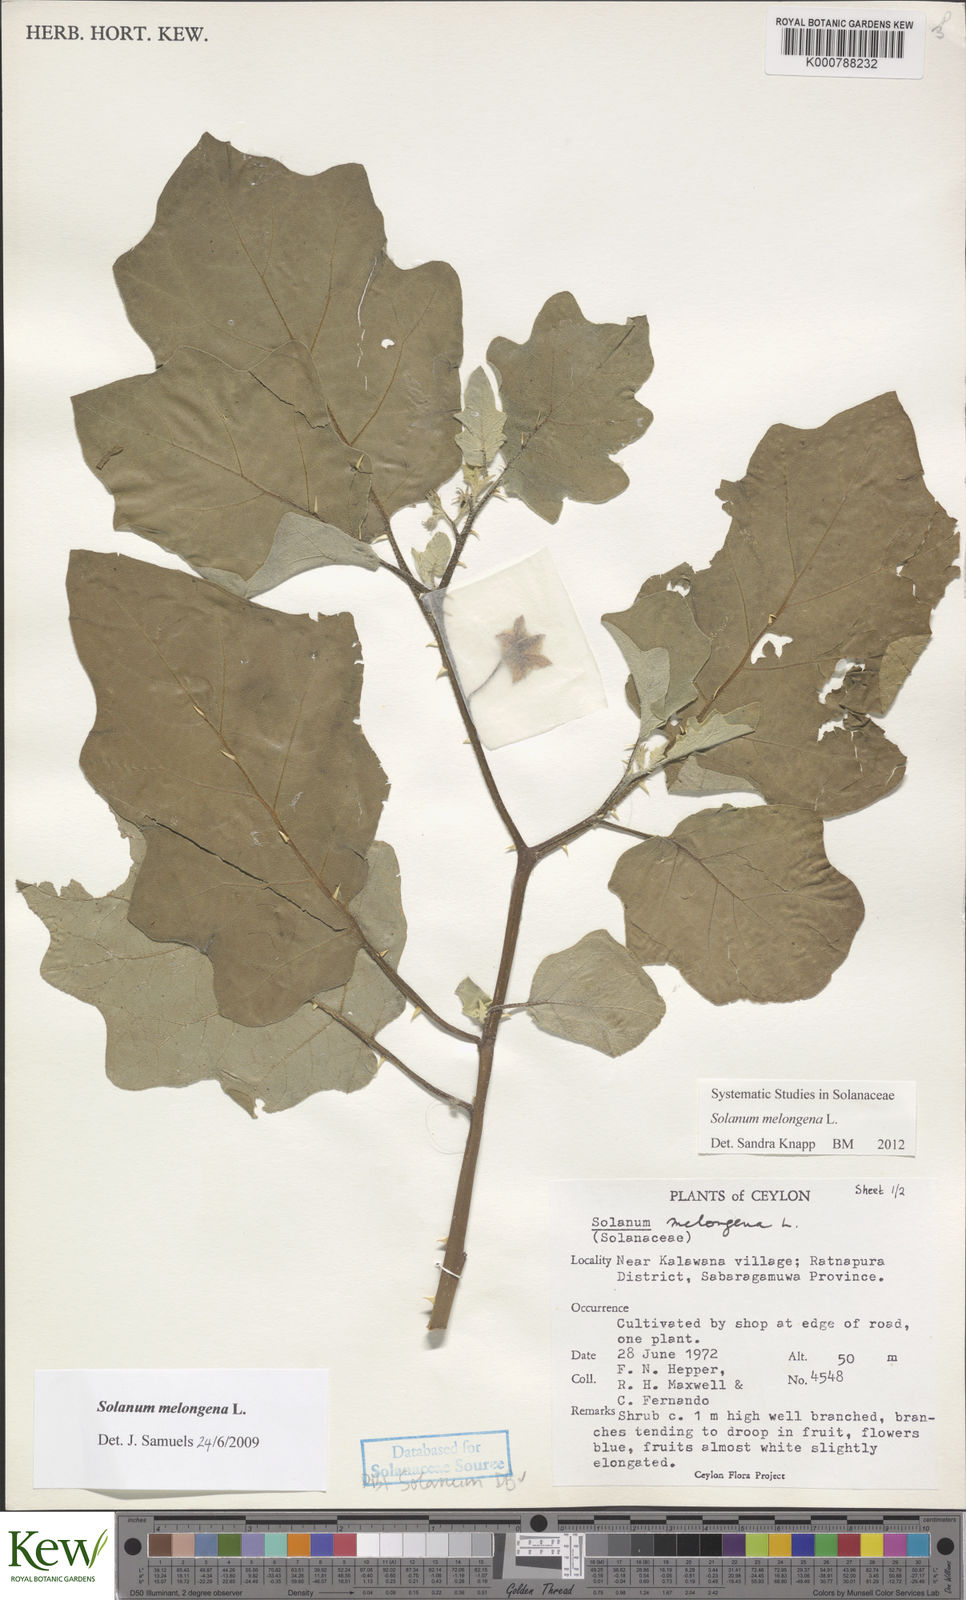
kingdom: Plantae
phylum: Tracheophyta
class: Magnoliopsida
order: Solanales
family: Solanaceae
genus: Solanum
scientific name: Solanum melongena
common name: Eggplant
